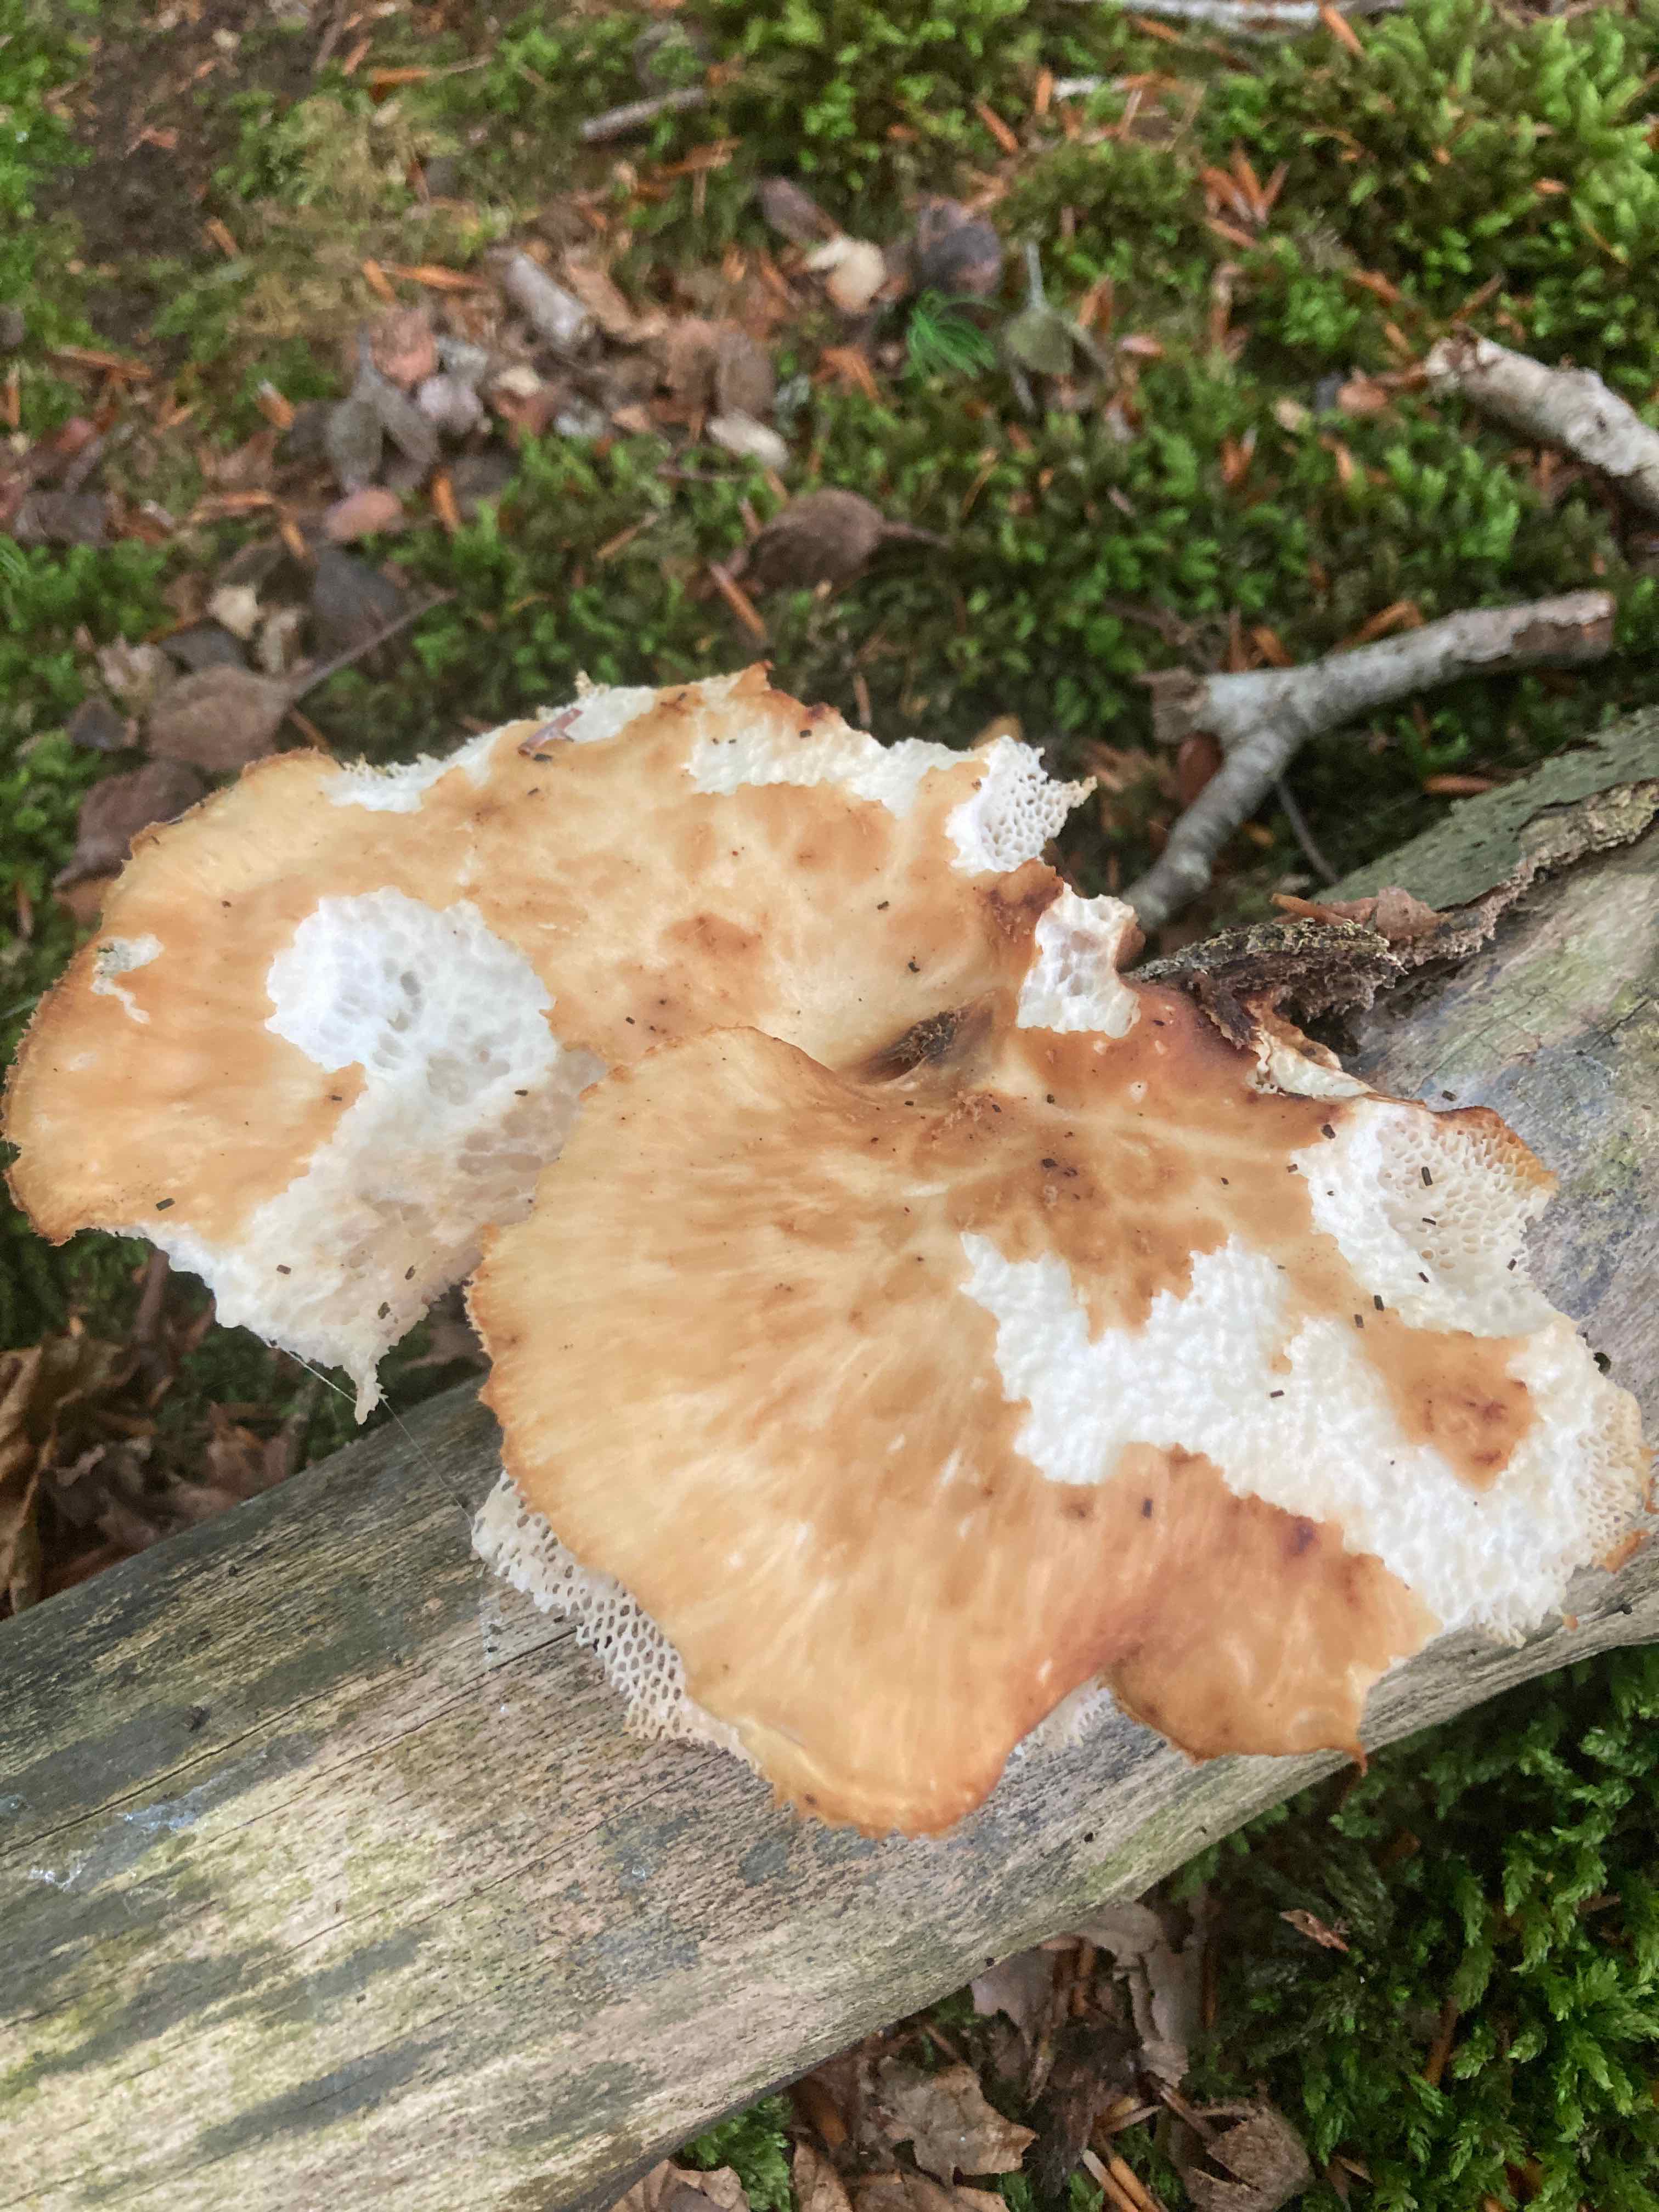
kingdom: Fungi
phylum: Basidiomycota
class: Agaricomycetes
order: Polyporales
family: Polyporaceae
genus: Polyporus
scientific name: Polyporus tuberaster
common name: knoldet stilkporesvamp
